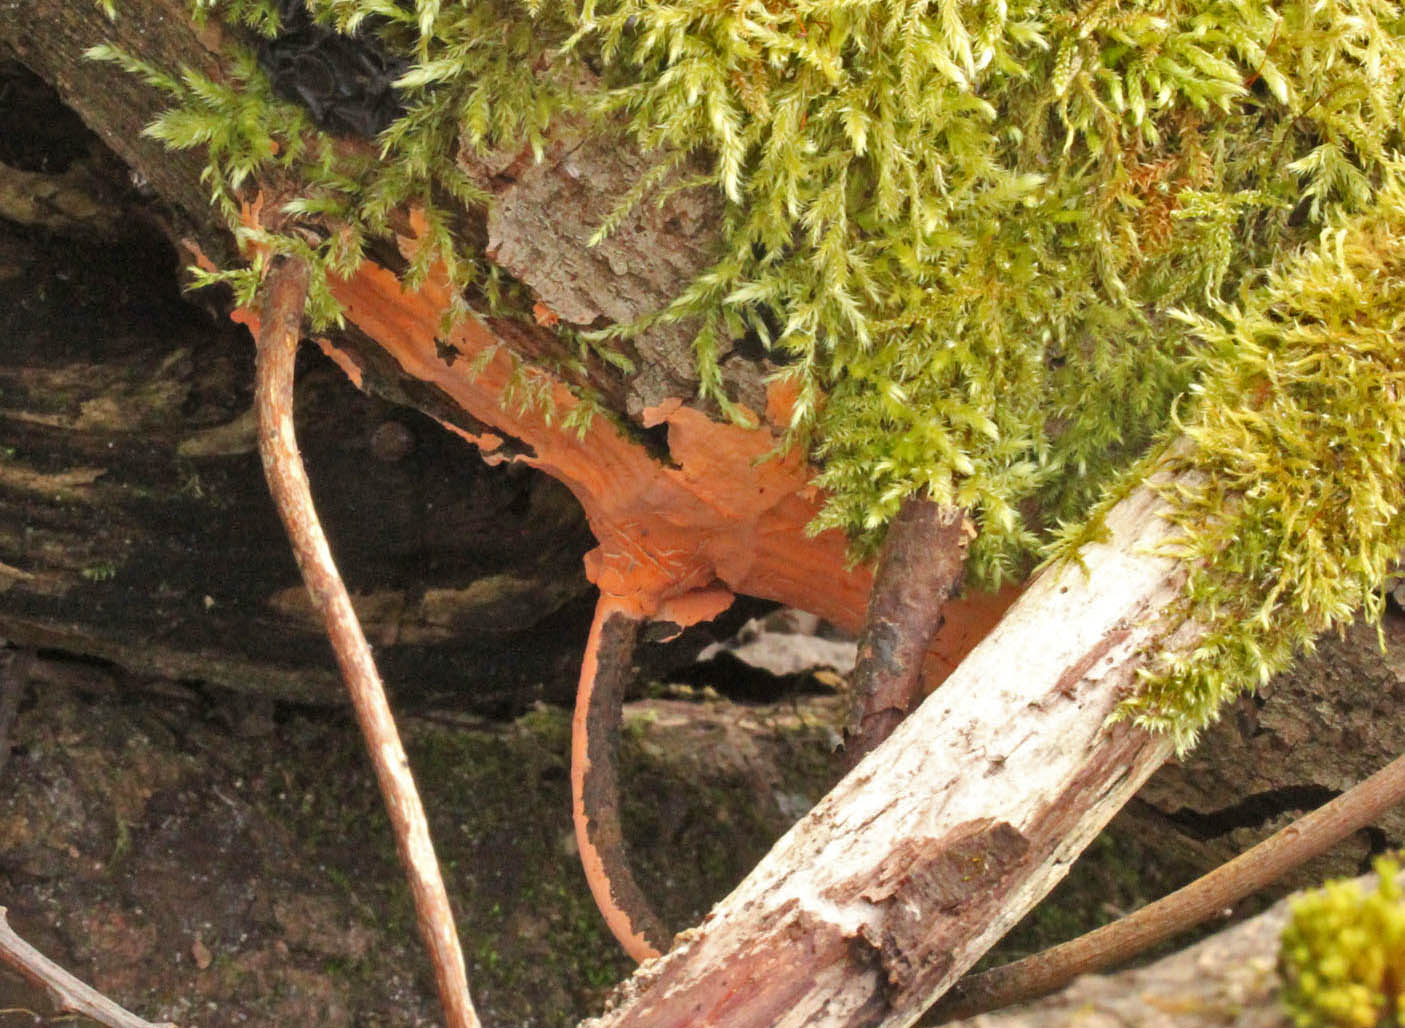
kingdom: Fungi
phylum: Basidiomycota
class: Agaricomycetes
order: Russulales
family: Peniophoraceae
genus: Peniophora
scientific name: Peniophora incarnata
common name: laksefarvet voksskind
